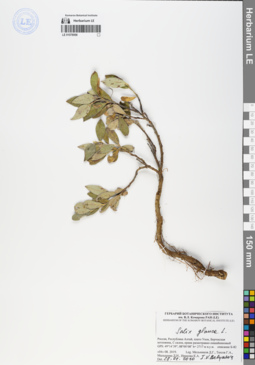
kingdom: Plantae
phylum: Tracheophyta
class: Magnoliopsida
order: Malpighiales
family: Salicaceae
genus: Salix
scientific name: Salix glauca
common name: Glaucous willow
